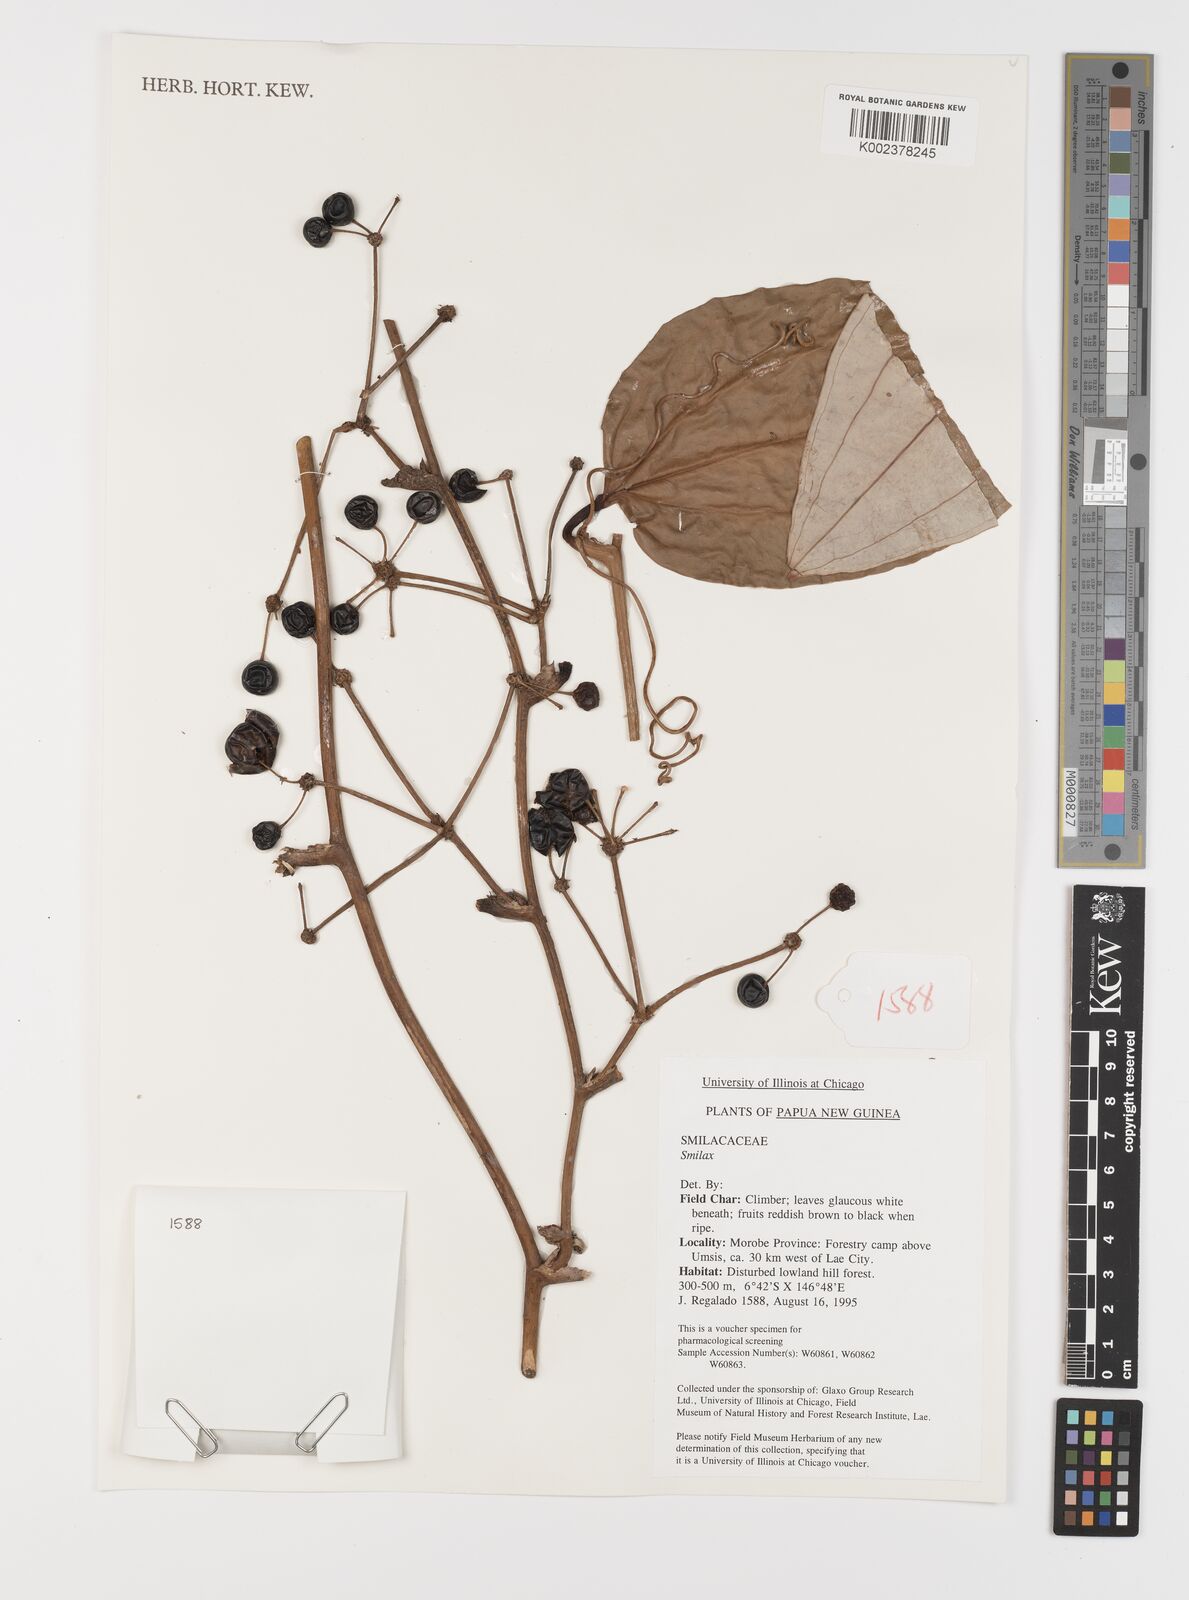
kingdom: Plantae
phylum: Tracheophyta
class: Liliopsida
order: Liliales
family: Smilacaceae
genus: Smilax
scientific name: Smilax
